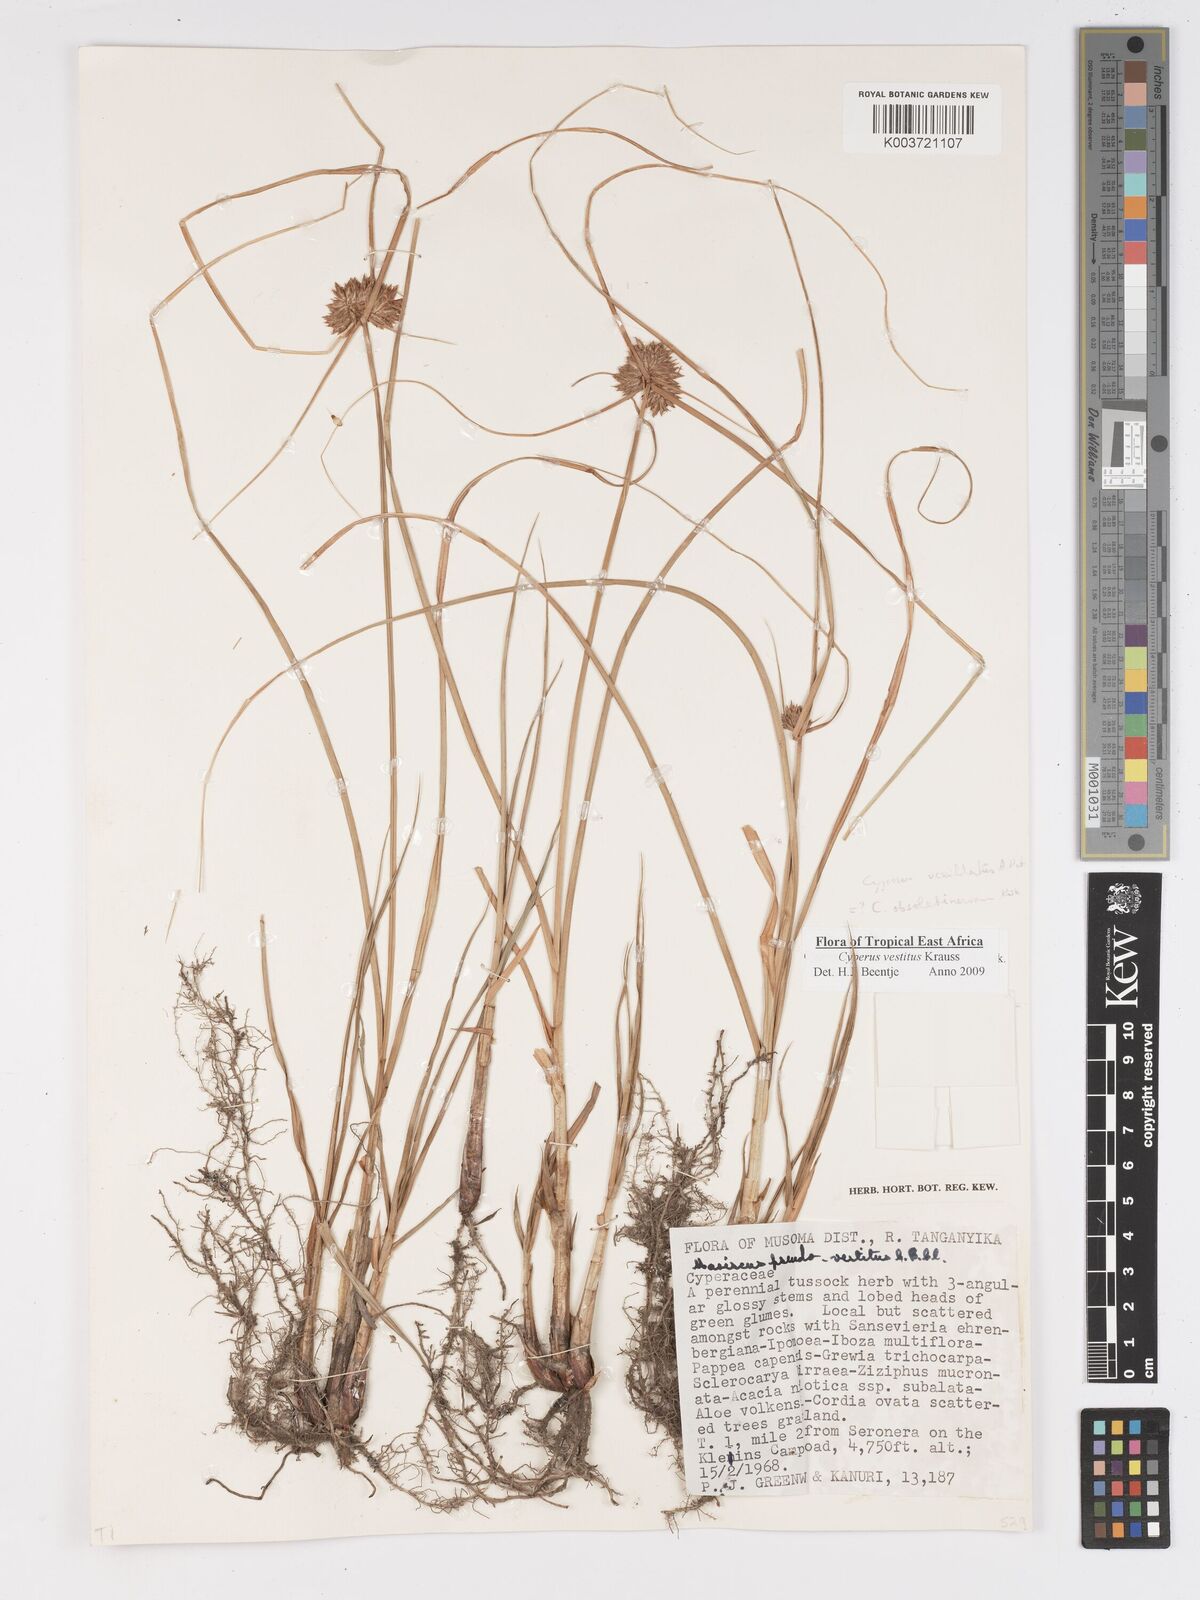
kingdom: Plantae
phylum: Tracheophyta
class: Liliopsida
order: Poales
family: Cyperaceae
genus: Cyperus
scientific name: Cyperus vestitus
